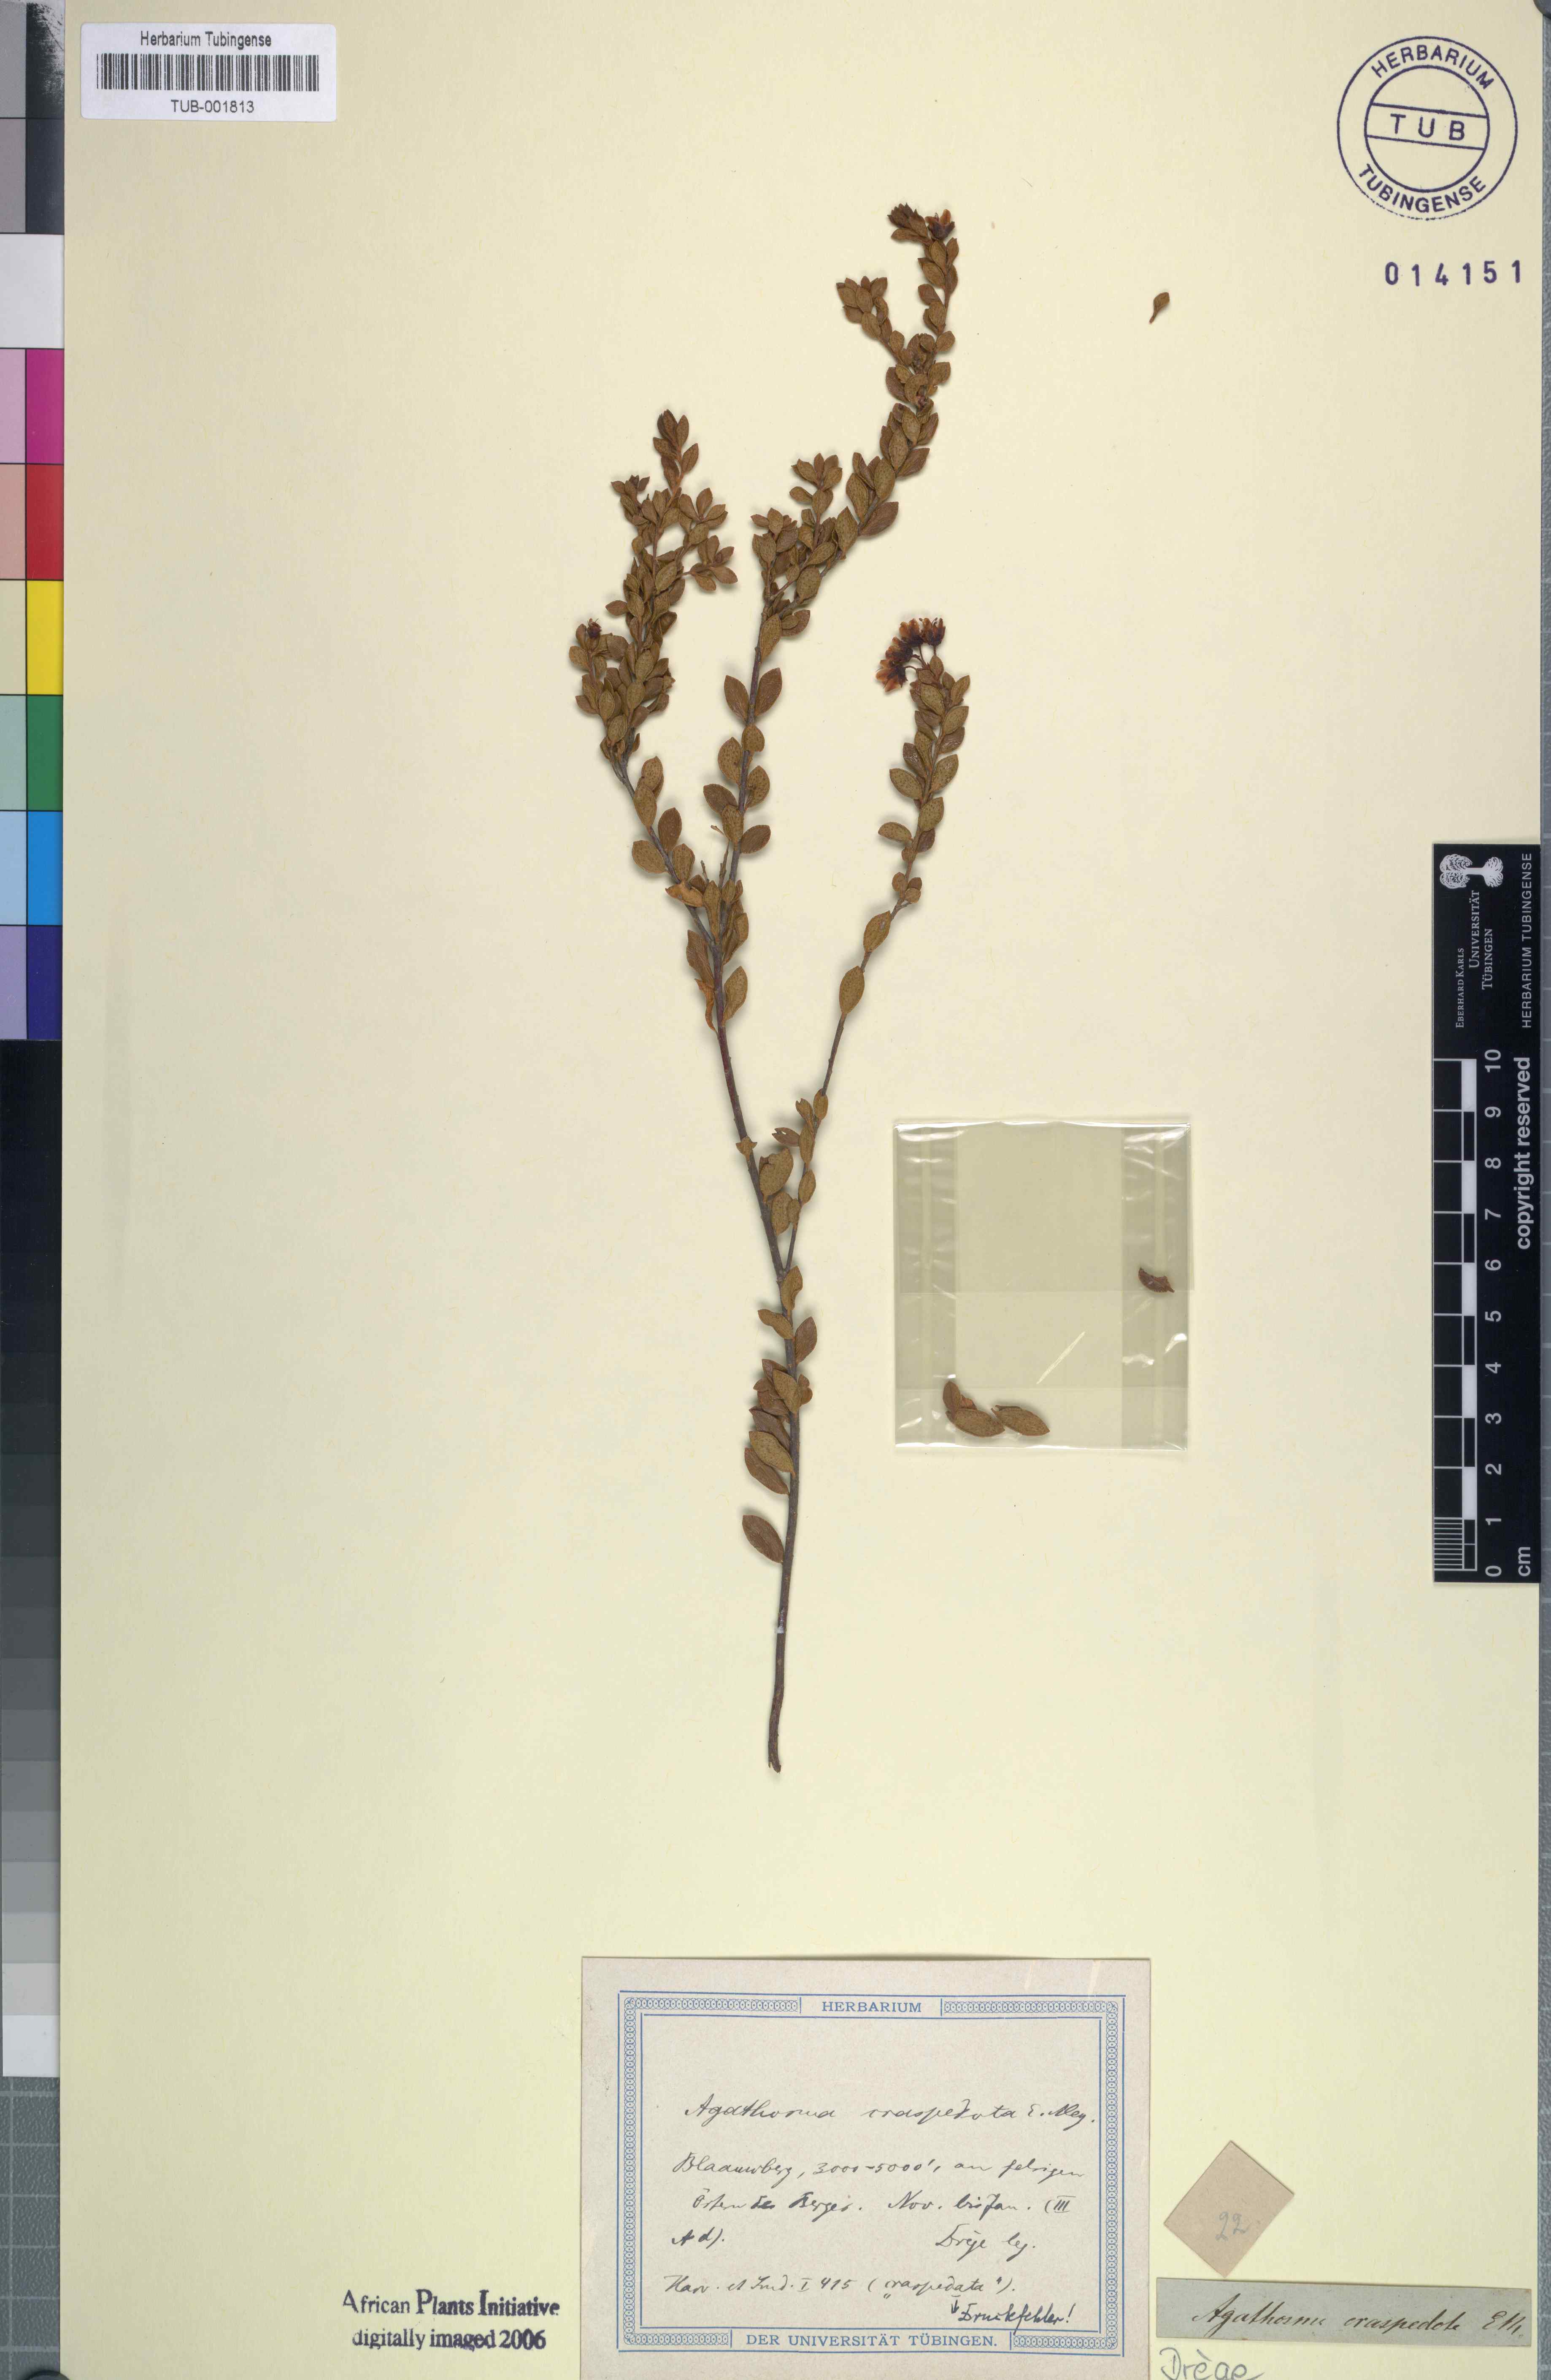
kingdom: Plantae
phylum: Tracheophyta
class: Magnoliopsida
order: Sapindales
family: Rutaceae
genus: Agathosma
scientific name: Agathosma craspedota
